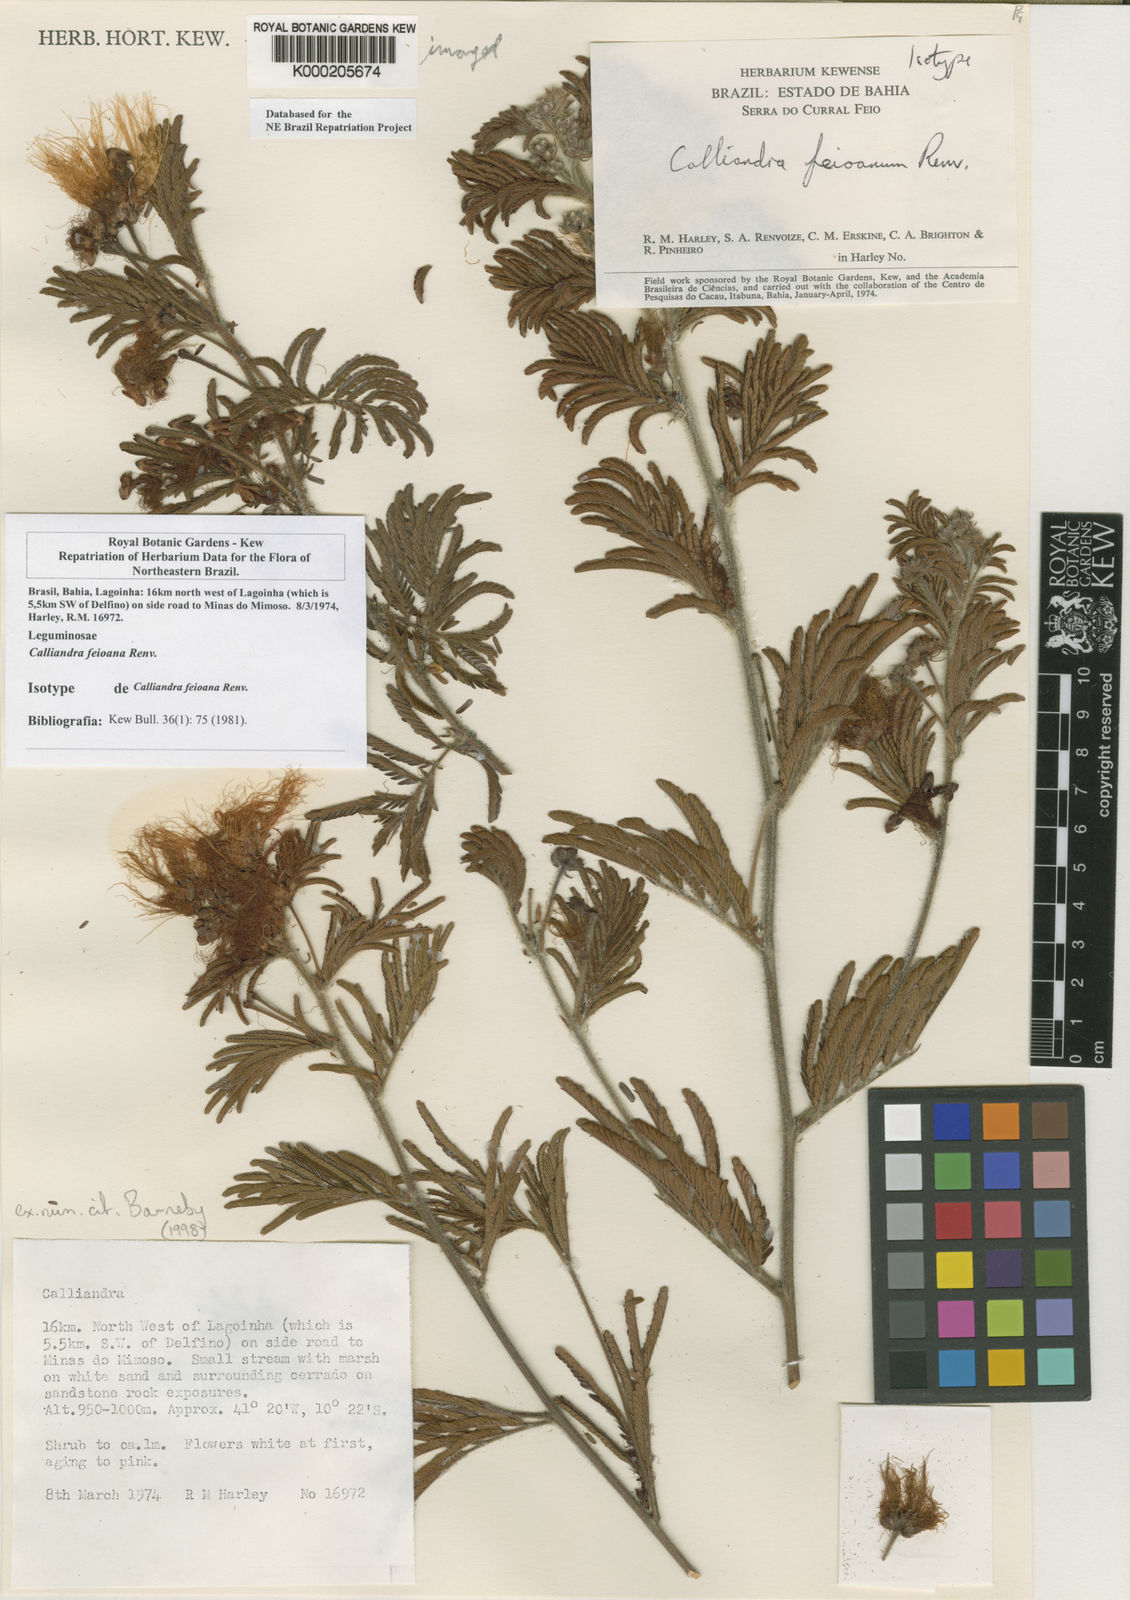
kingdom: Plantae
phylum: Tracheophyta
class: Magnoliopsida
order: Fabales
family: Fabaceae
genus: Calliandra
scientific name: Calliandra
